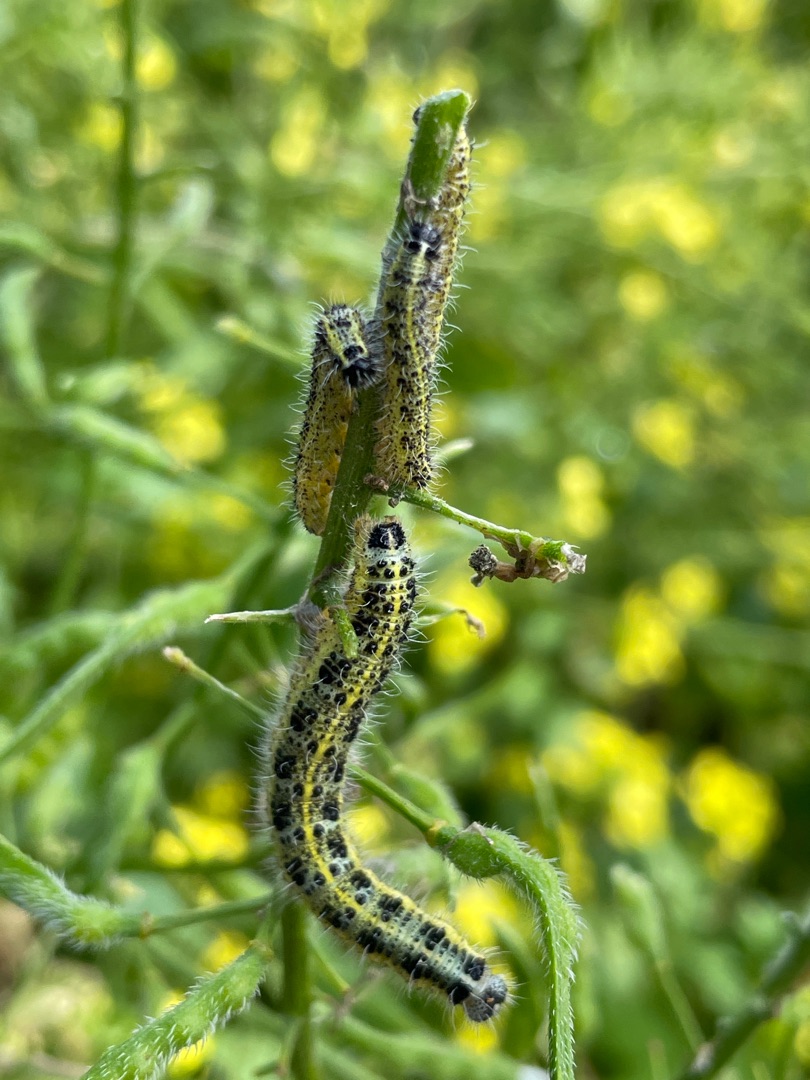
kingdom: Animalia
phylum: Arthropoda
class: Insecta
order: Lepidoptera
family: Pieridae
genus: Pieris
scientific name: Pieris brassicae
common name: Stor kålsommerfugl
